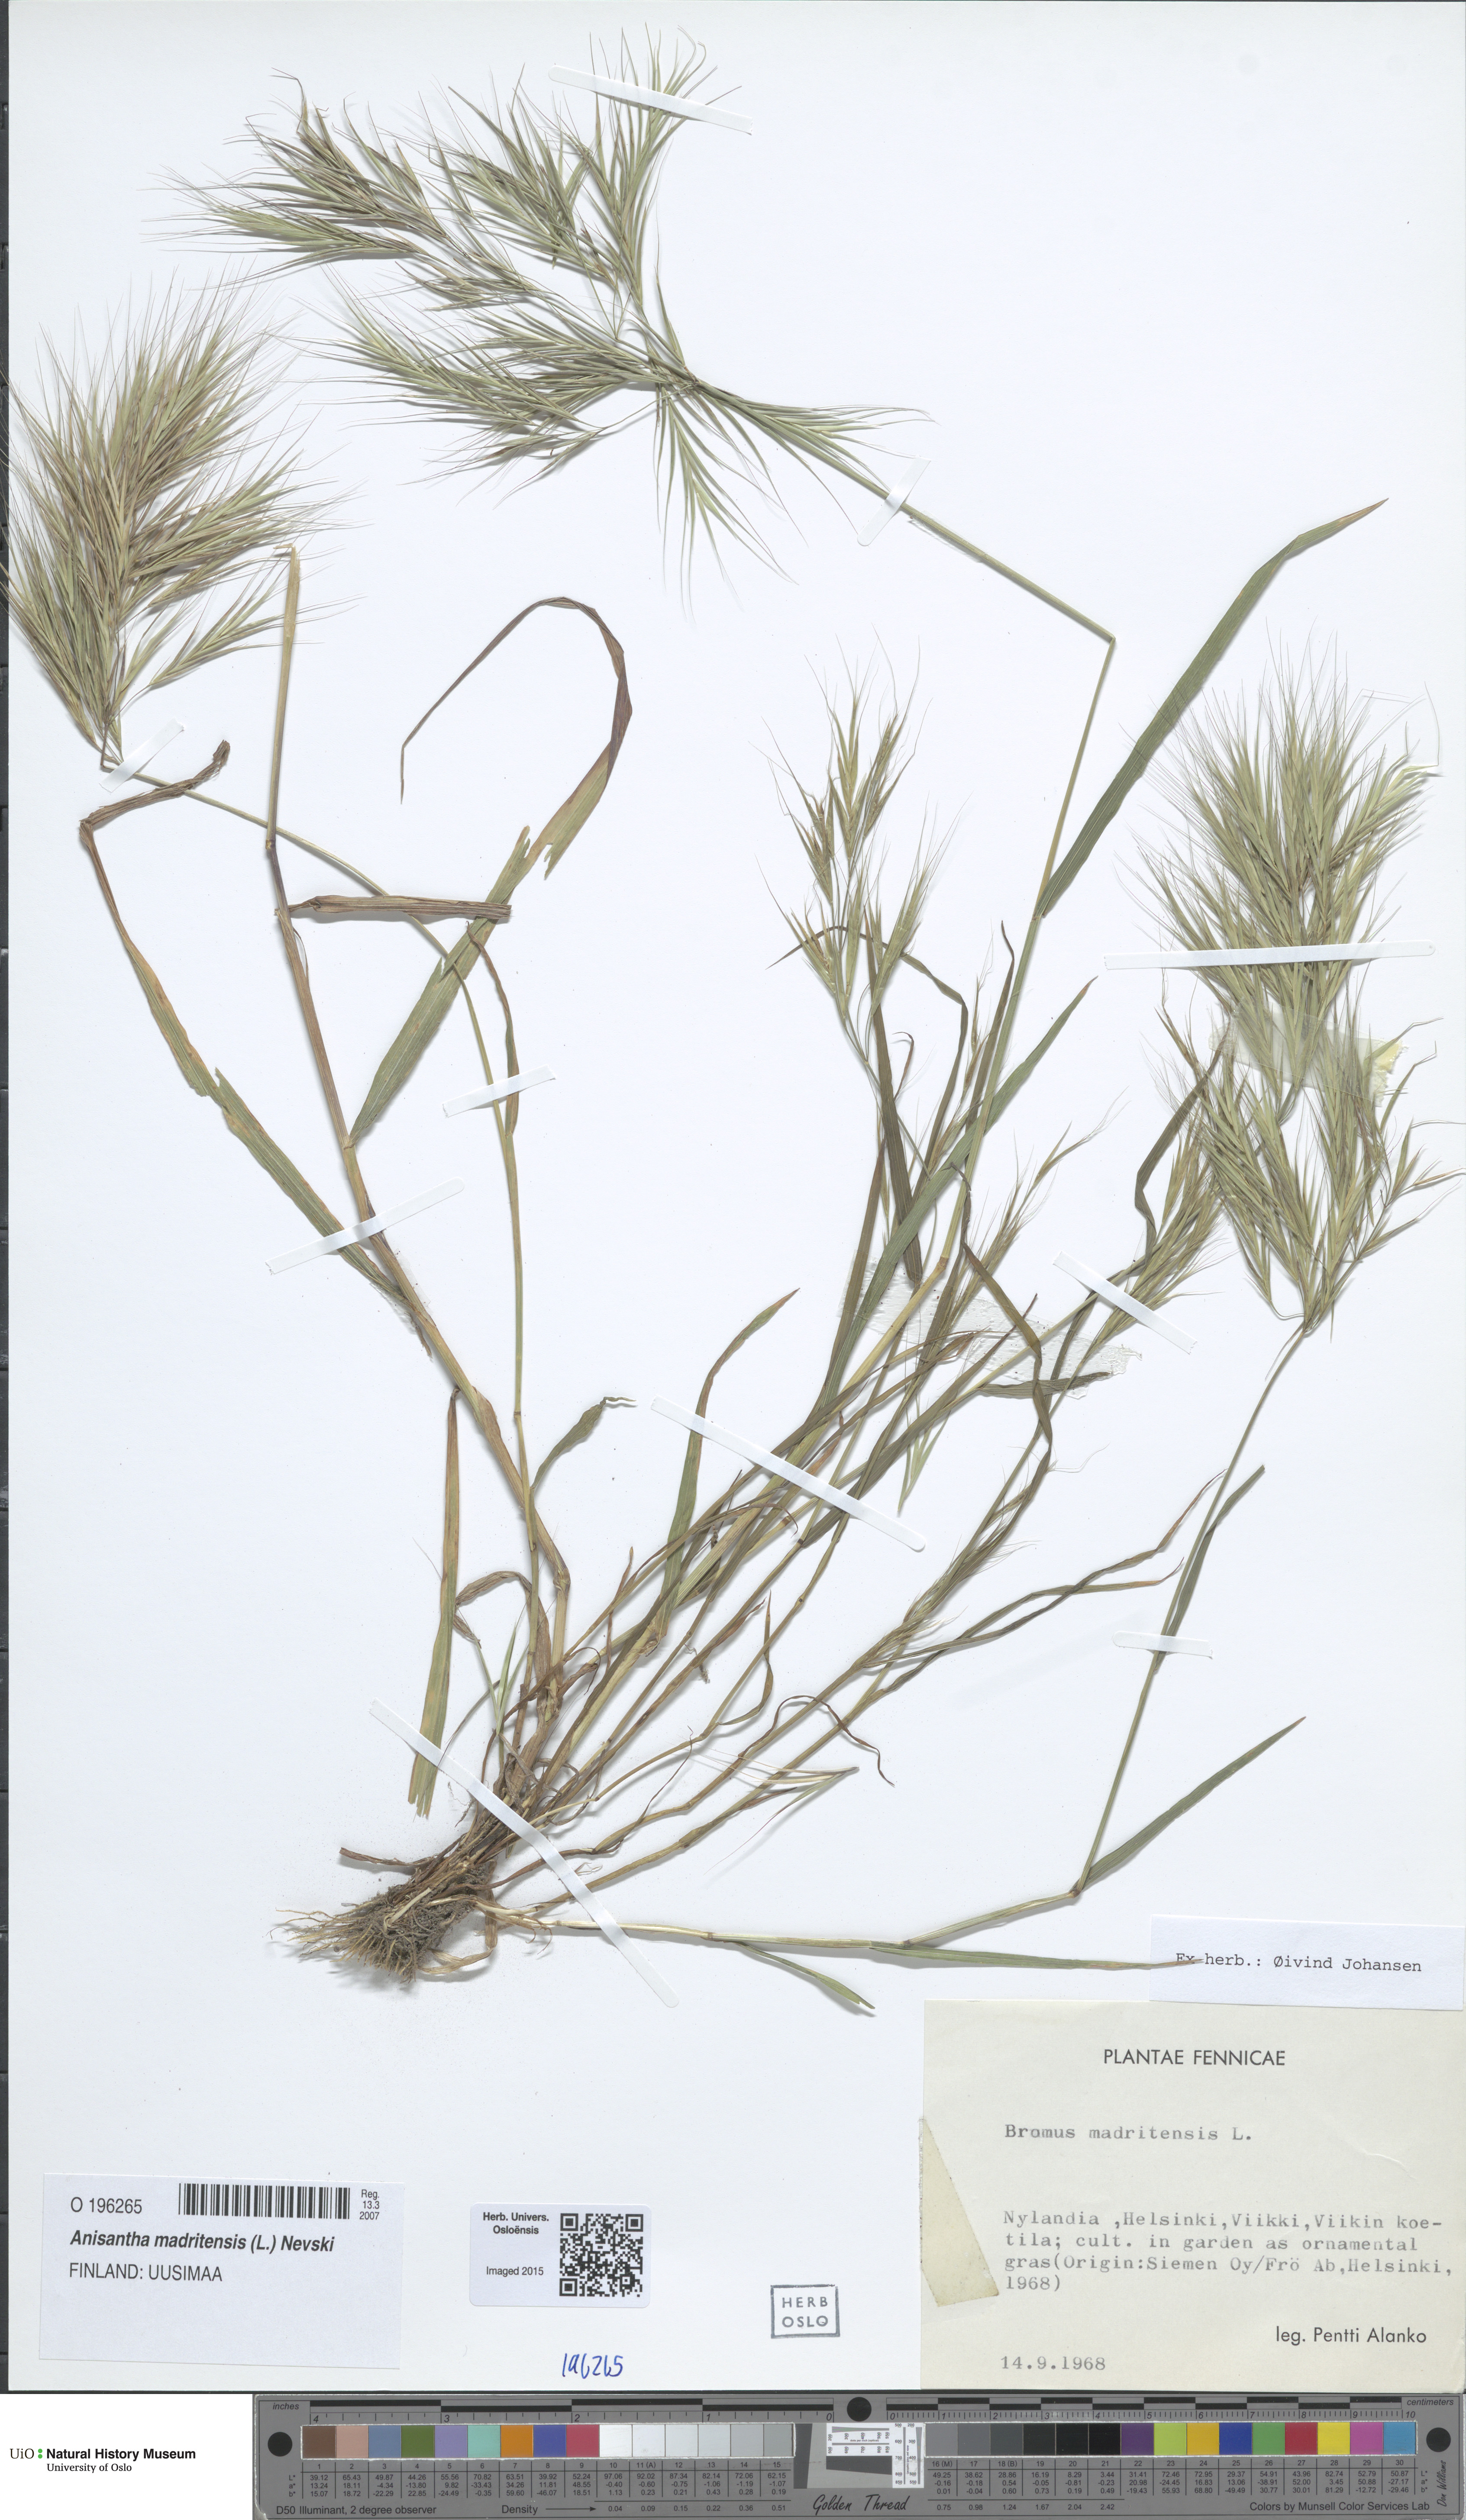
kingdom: Plantae
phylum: Tracheophyta
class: Liliopsida
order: Poales
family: Poaceae
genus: Bromus
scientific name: Bromus madritensis
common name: Compact brome
